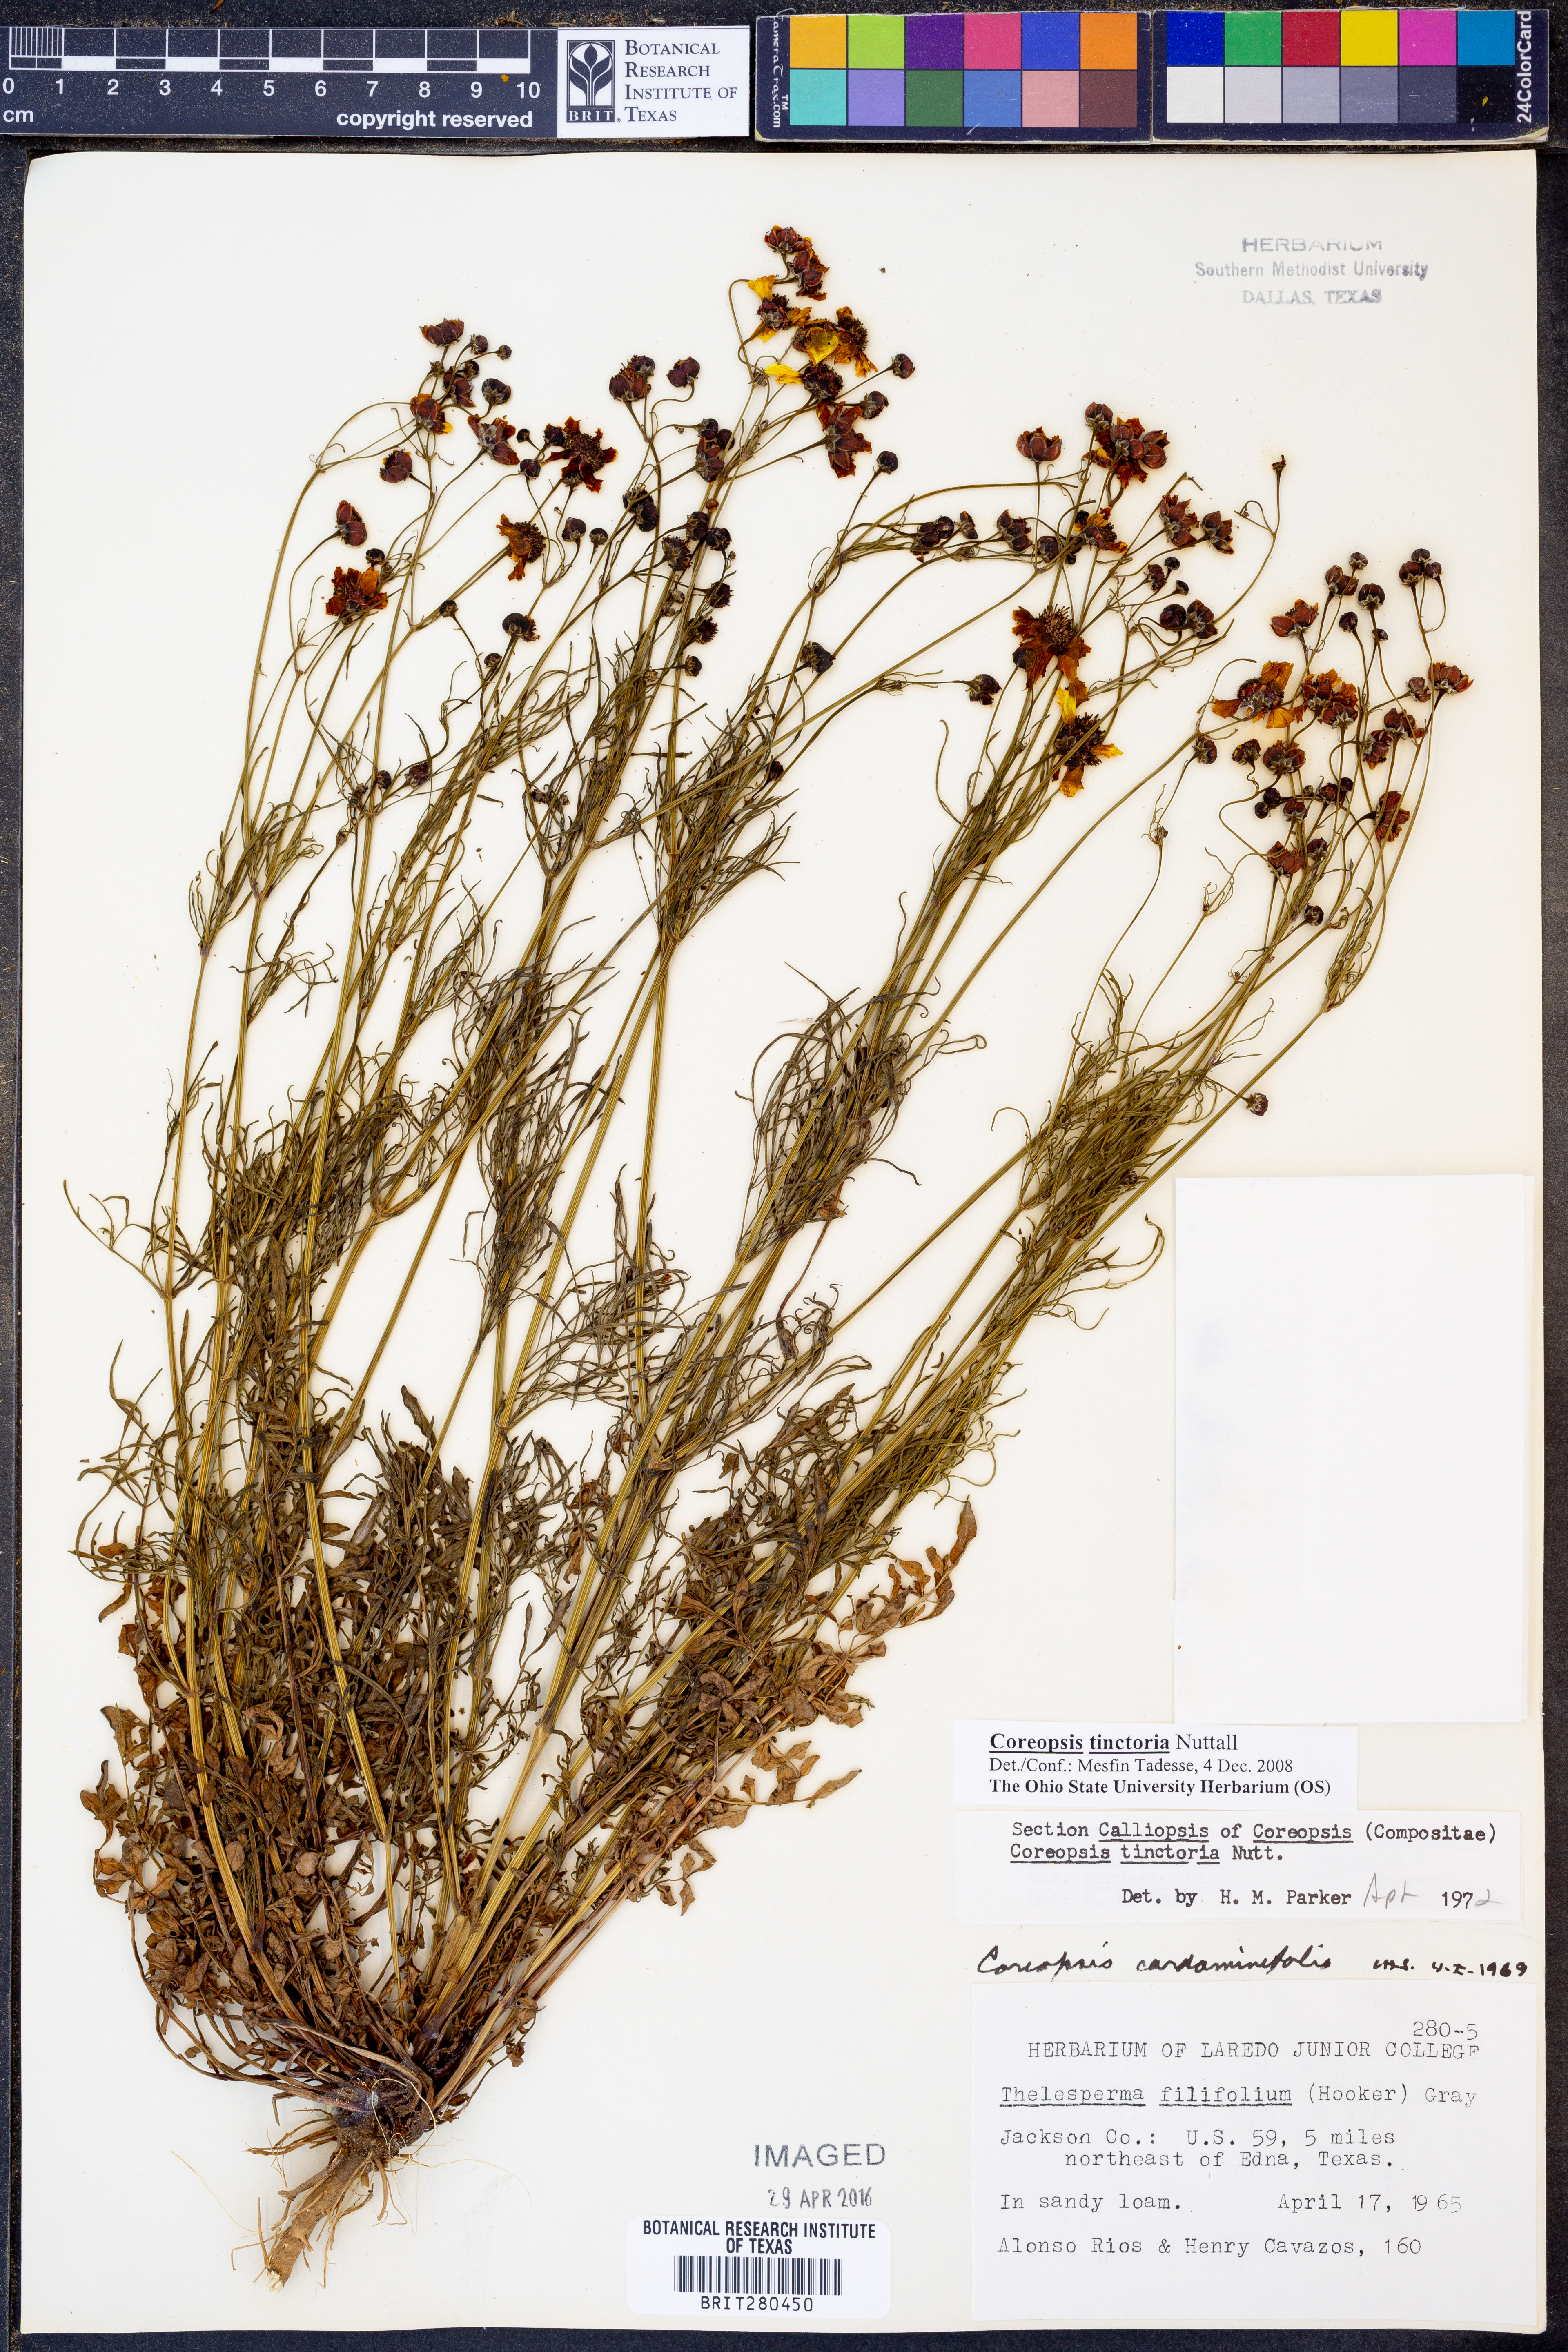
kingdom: Plantae
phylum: Tracheophyta
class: Magnoliopsida
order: Asterales
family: Asteraceae
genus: Coreopsis
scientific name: Coreopsis tinctoria
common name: Garden tickseed
